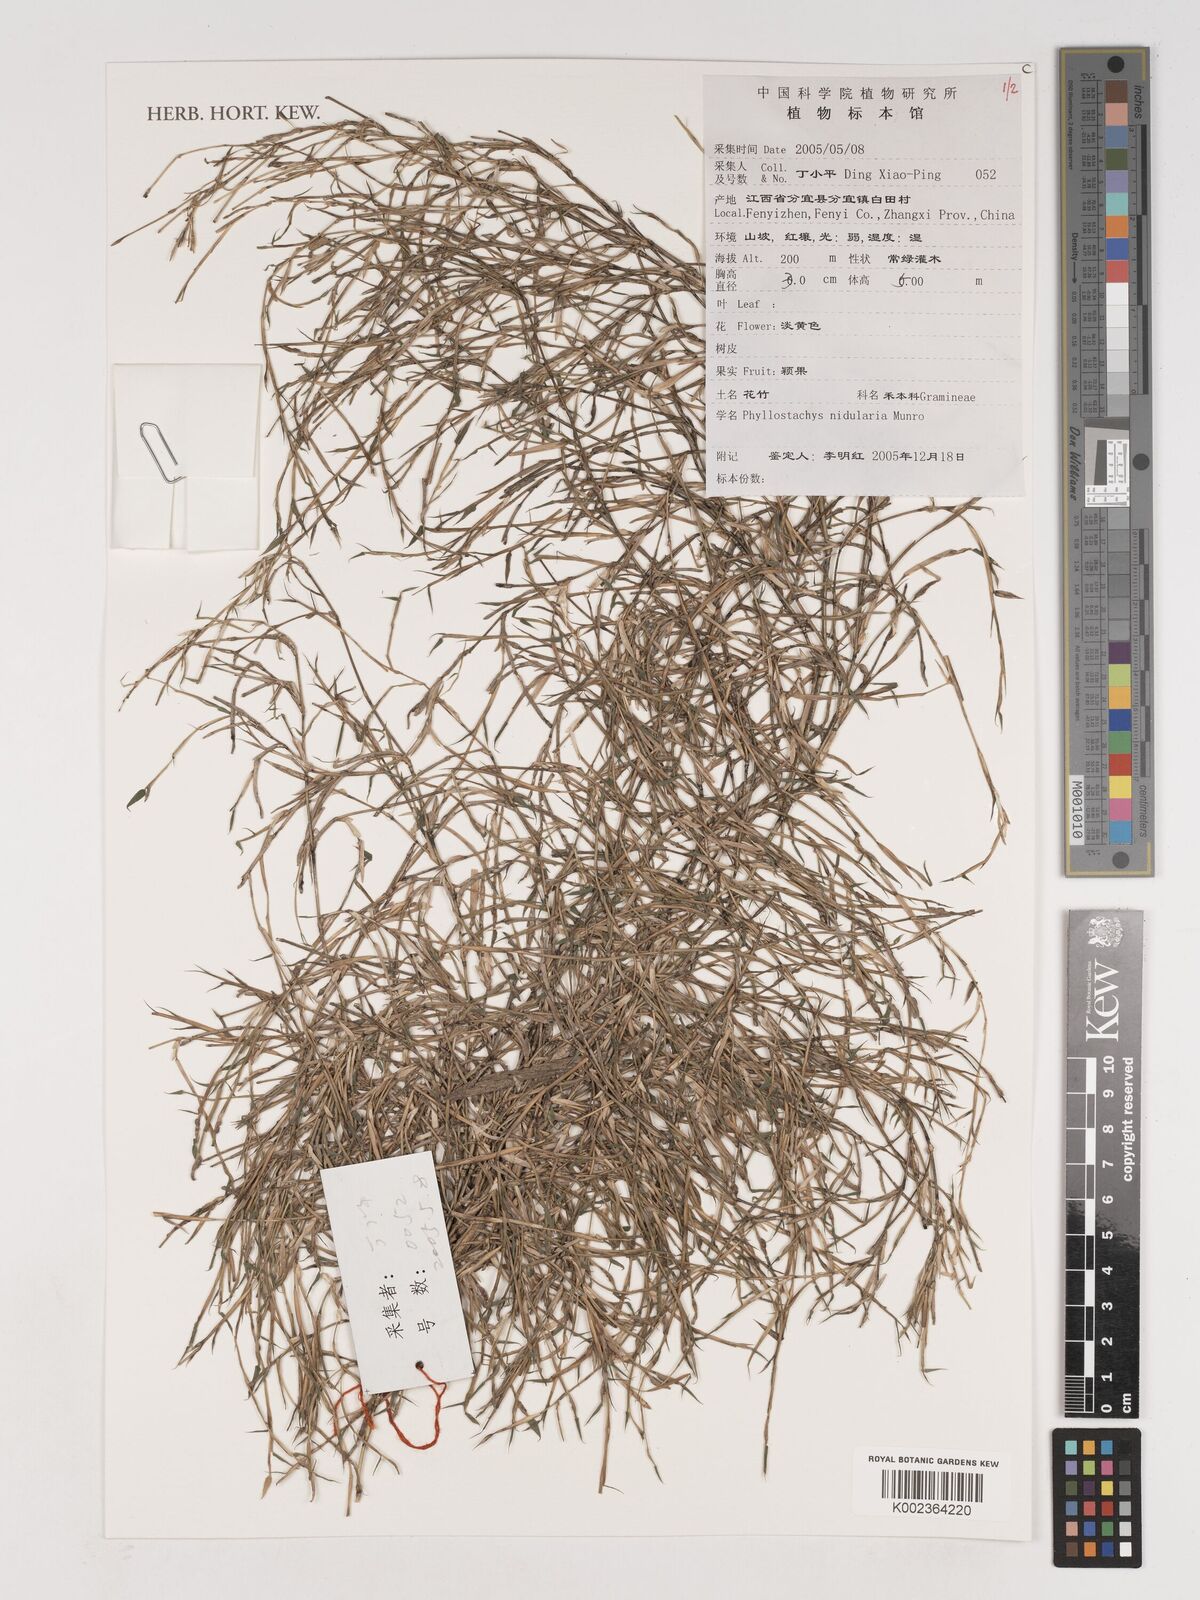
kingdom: Plantae
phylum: Tracheophyta
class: Liliopsida
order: Poales
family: Poaceae
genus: Phyllostachys
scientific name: Phyllostachys nidularia
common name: Broom bamboo
